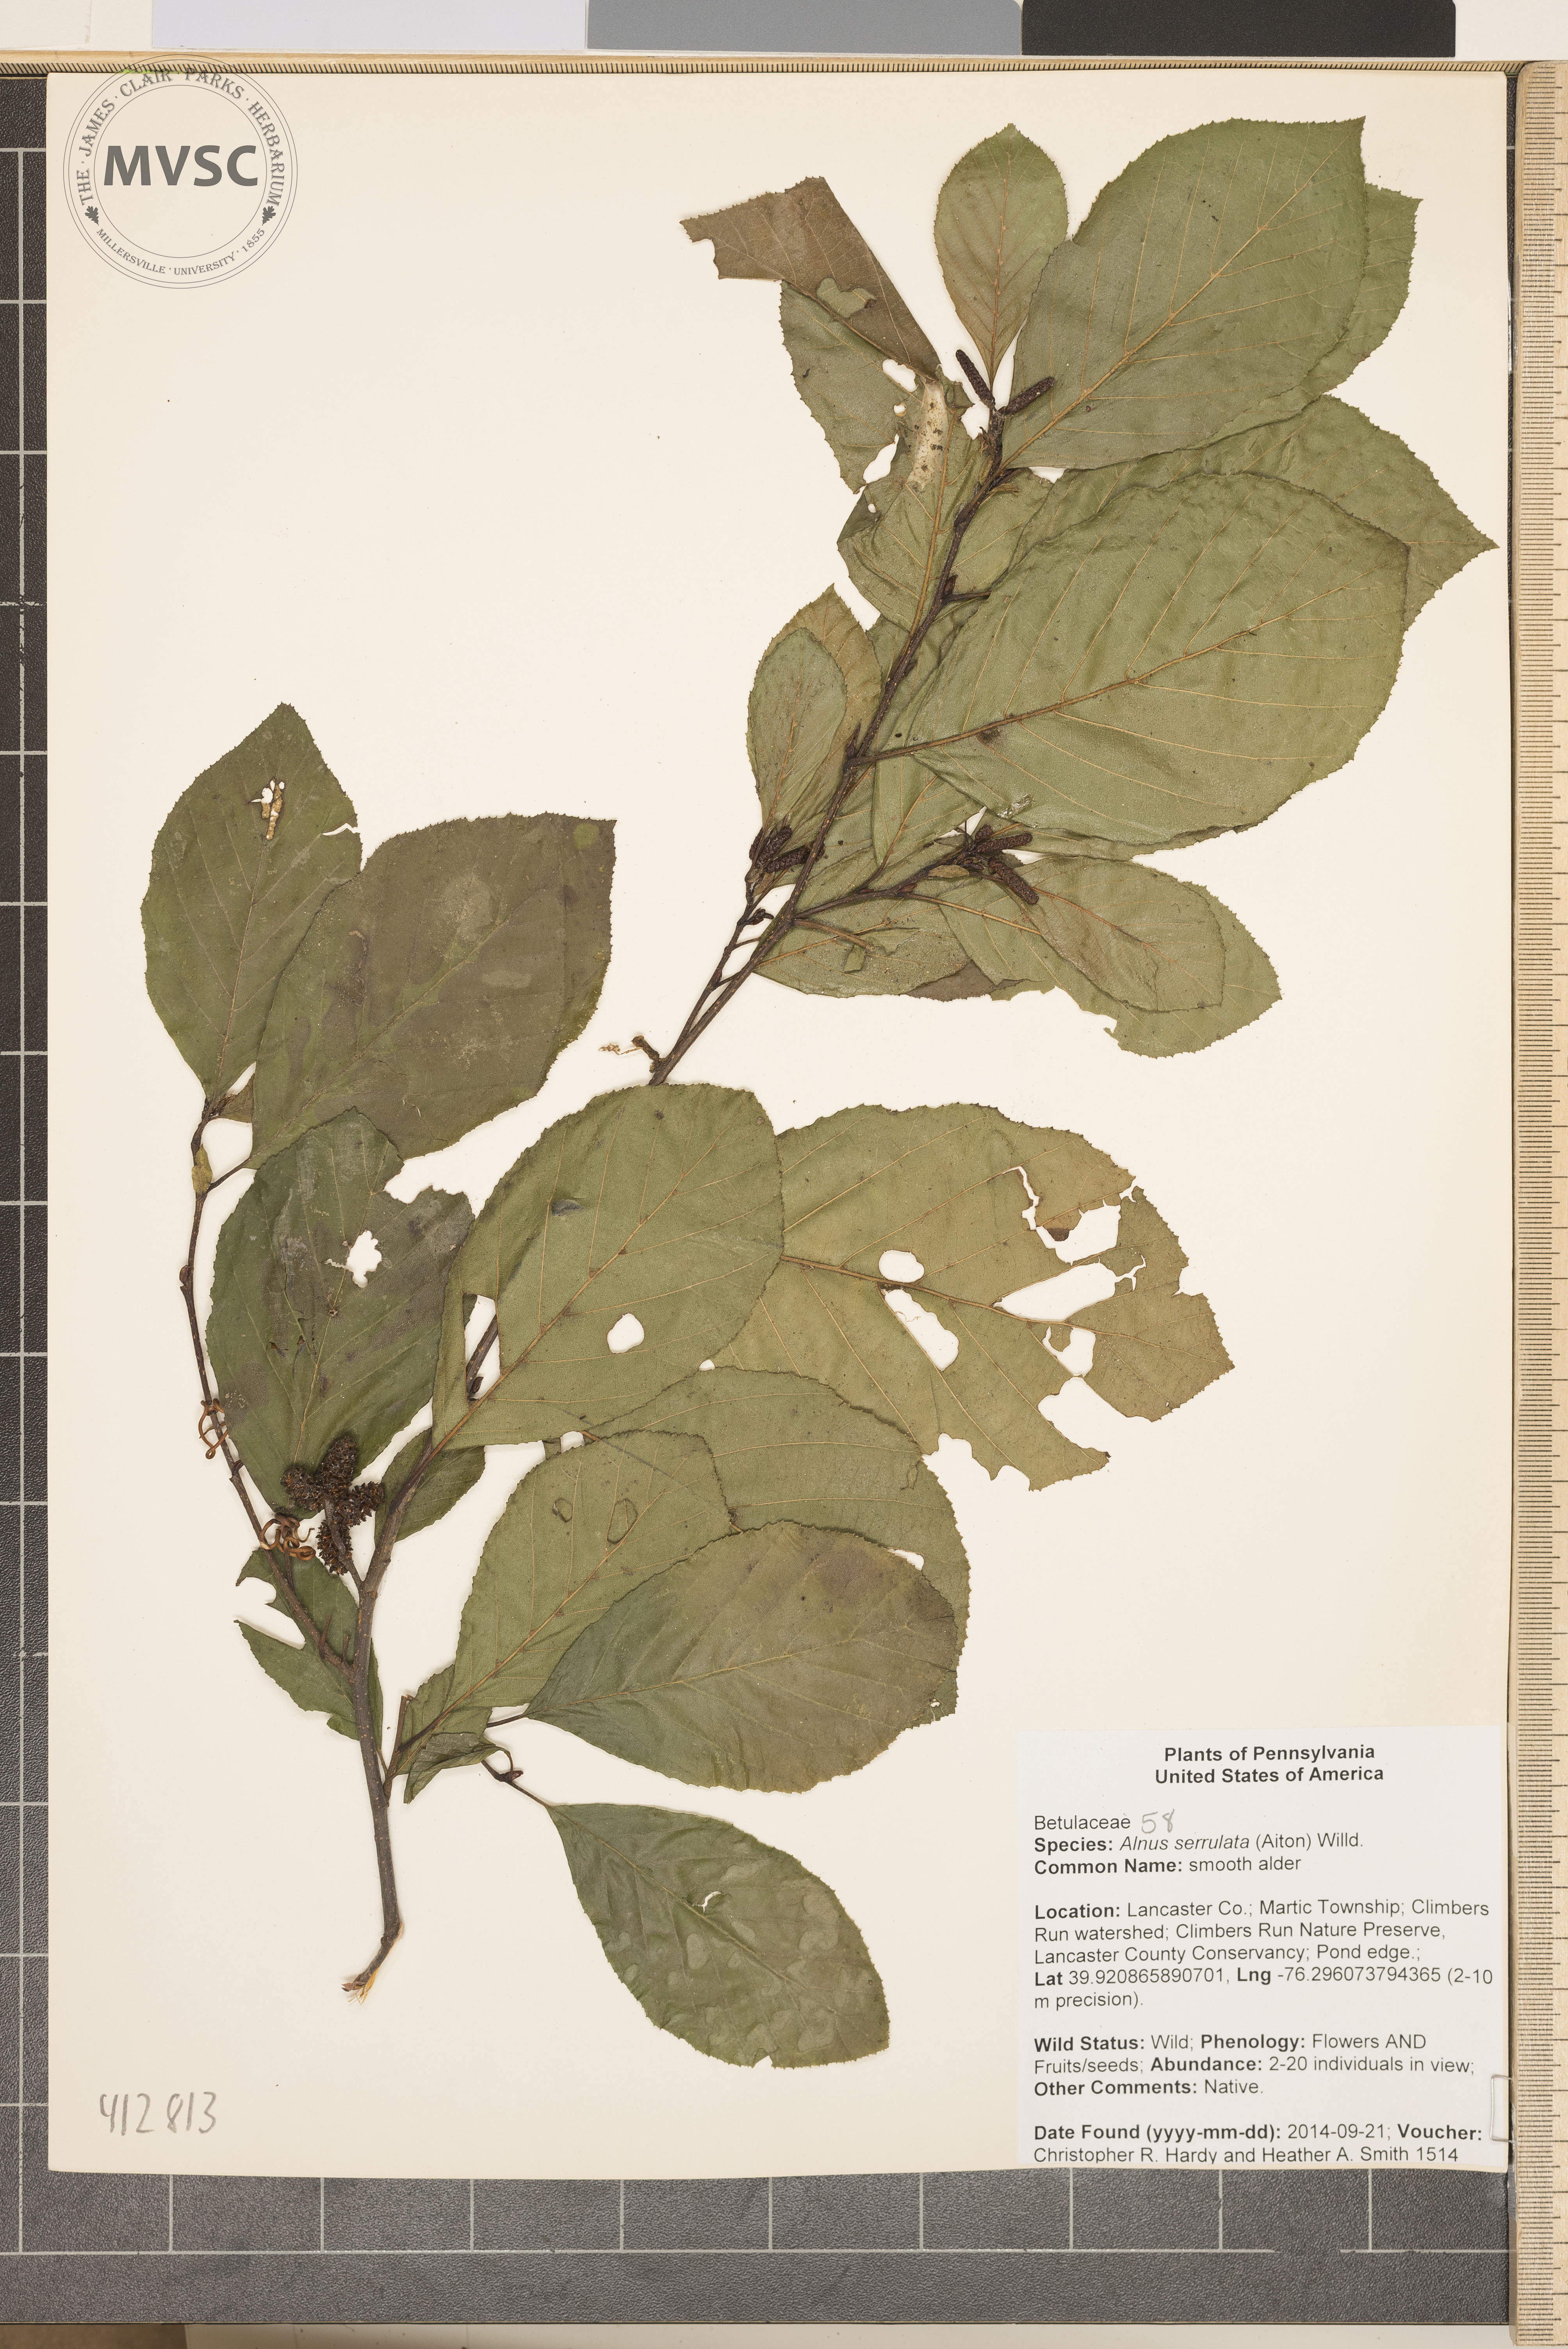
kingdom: Plantae
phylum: Tracheophyta
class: Magnoliopsida
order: Fagales
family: Betulaceae
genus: Alnus
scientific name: Alnus serrulata
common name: smooth alder
